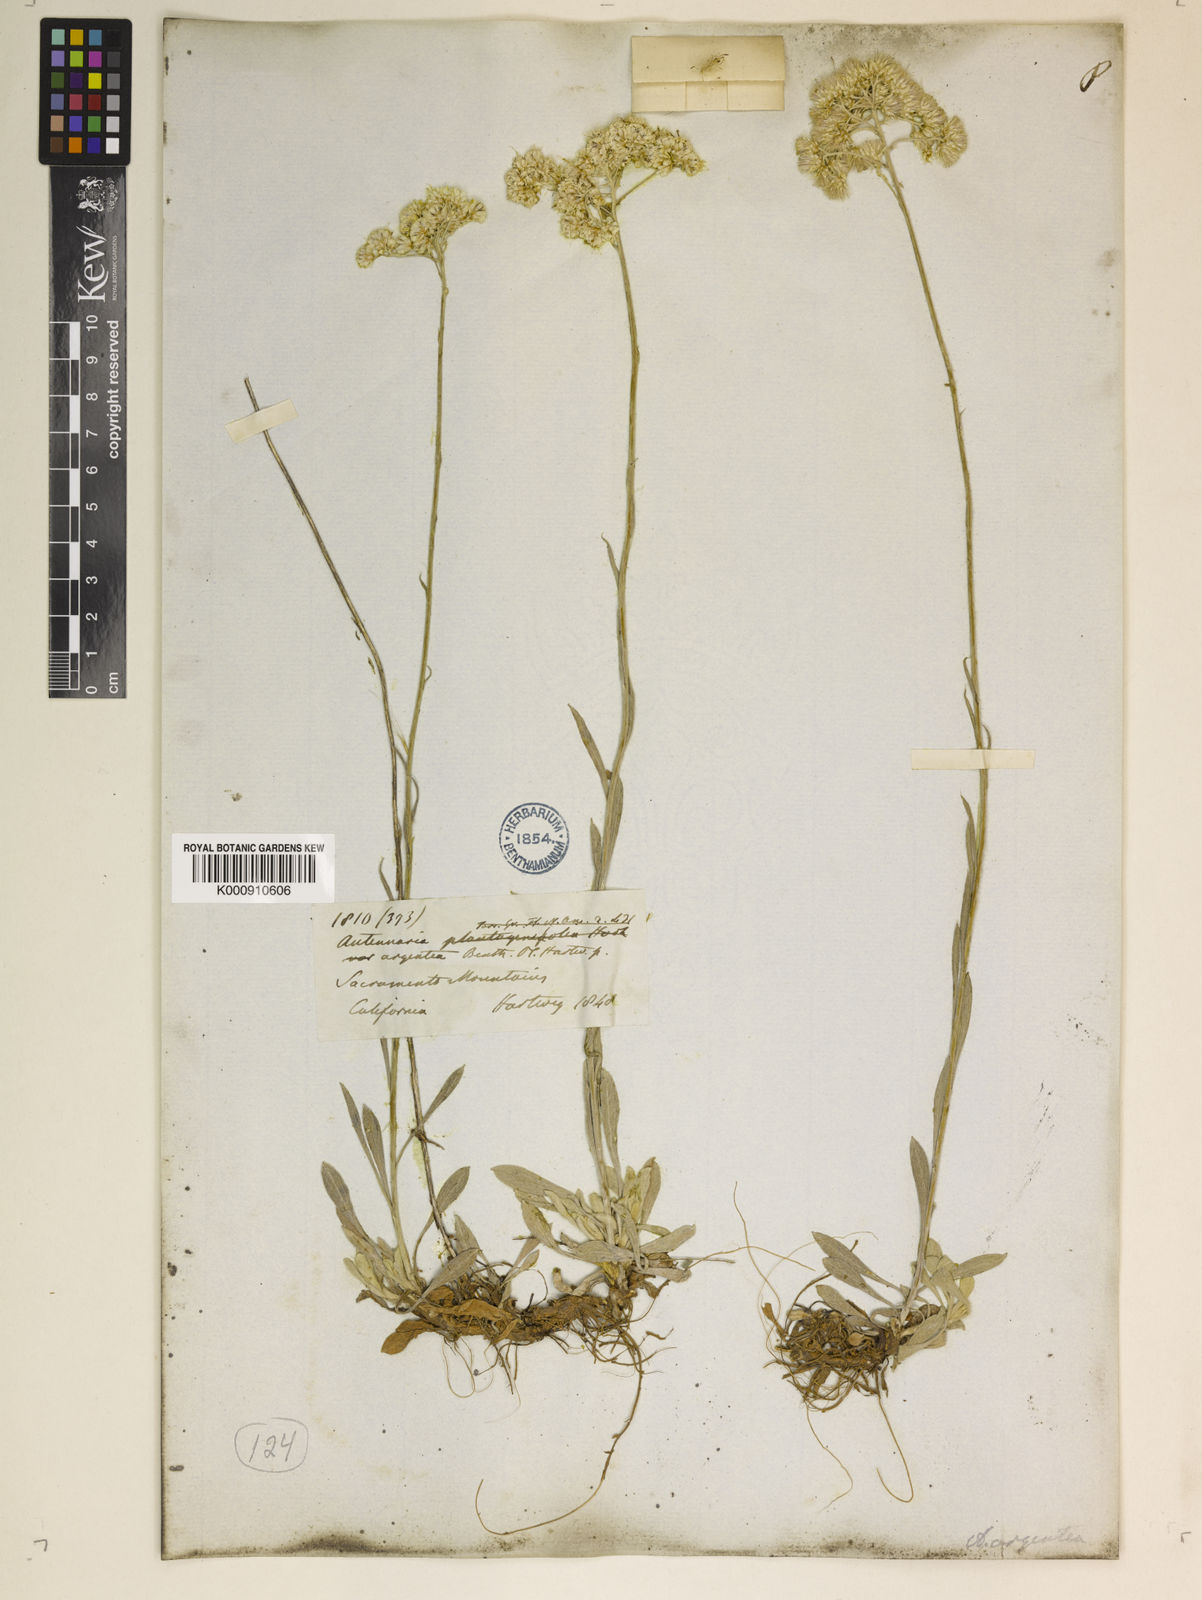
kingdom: Plantae
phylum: Tracheophyta
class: Magnoliopsida
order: Asterales
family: Asteraceae
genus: Antennaria
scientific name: Antennaria argentea
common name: Silver pussytoes
